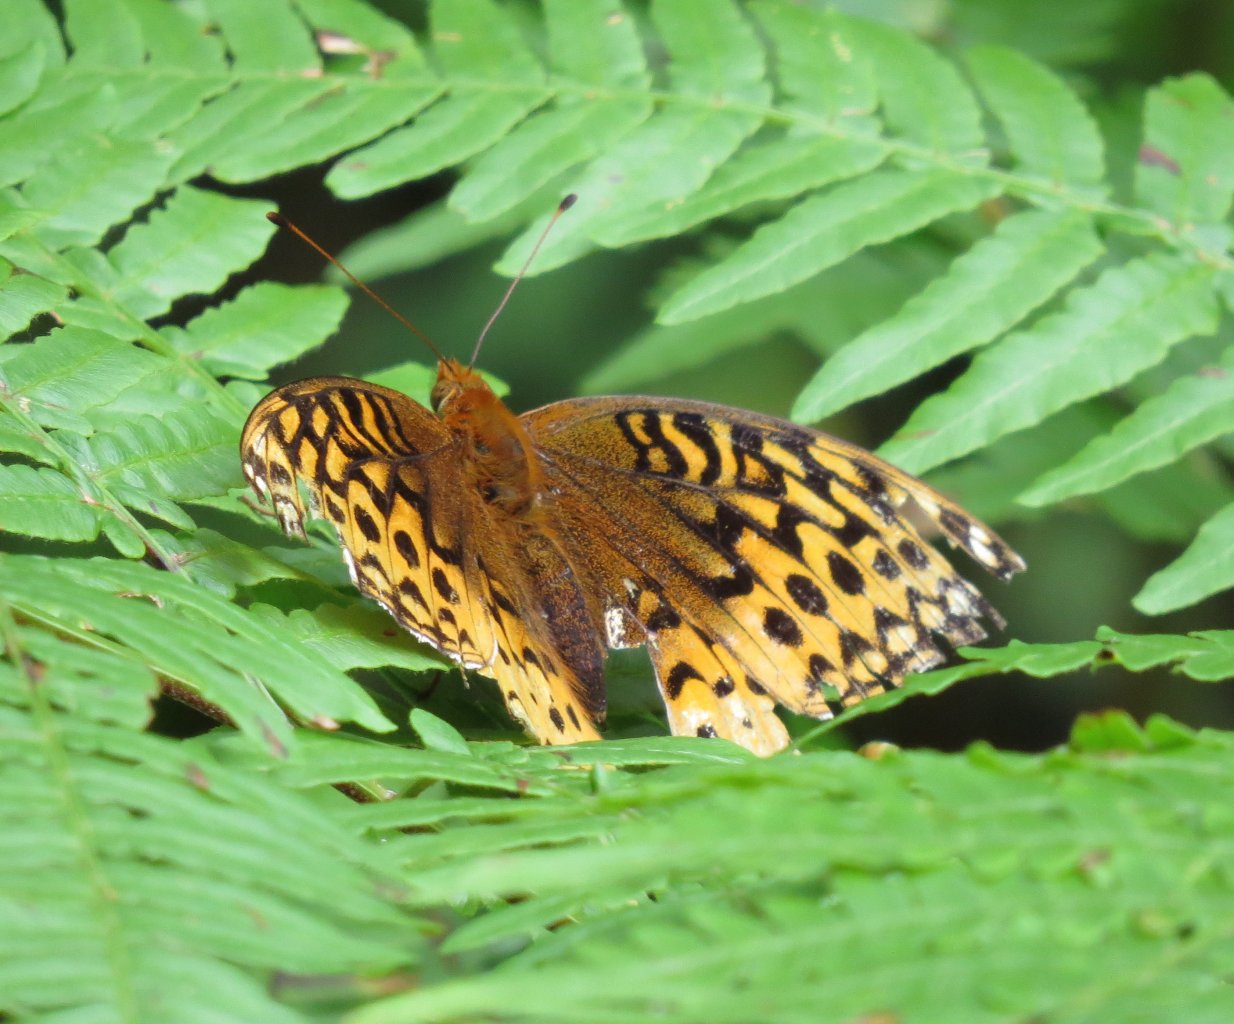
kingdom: Animalia
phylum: Arthropoda
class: Insecta
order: Lepidoptera
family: Nymphalidae
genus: Speyeria
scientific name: Speyeria cybele
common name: Great Spangled Fritillary
